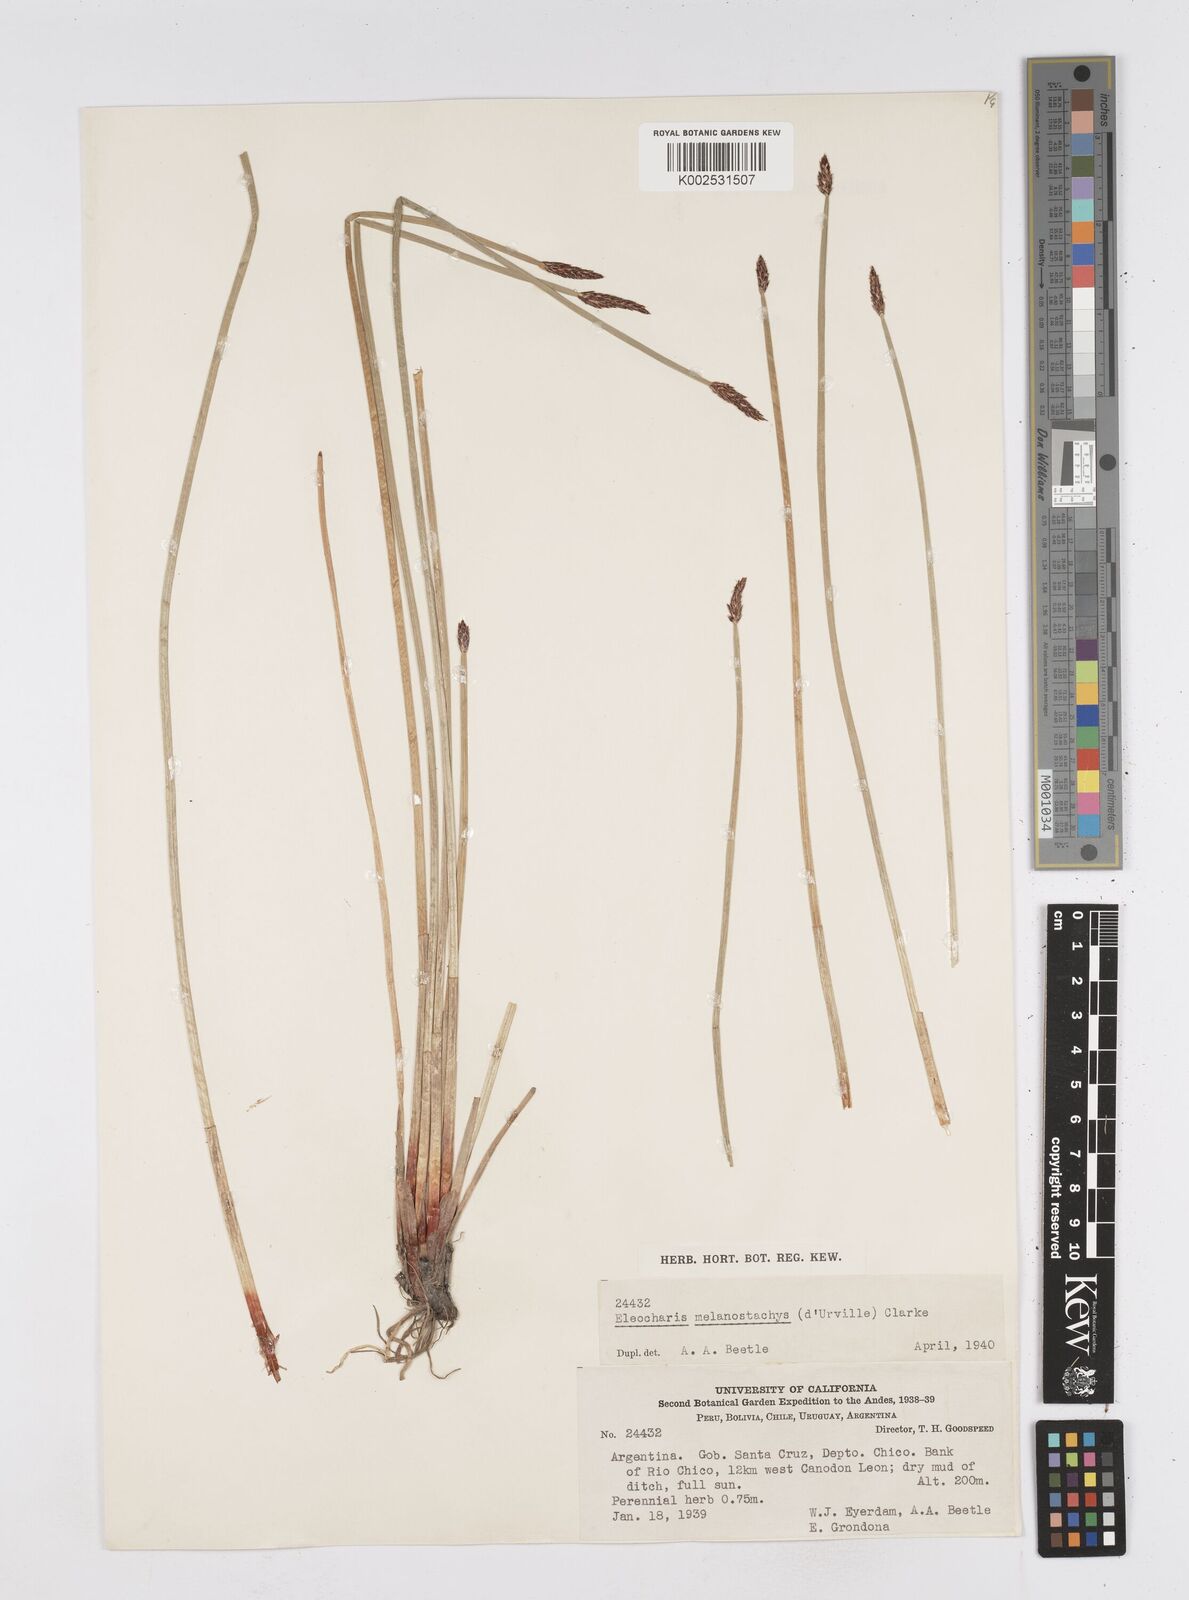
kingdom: Plantae
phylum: Tracheophyta
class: Liliopsida
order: Poales
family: Cyperaceae
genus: Eleocharis
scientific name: Eleocharis melanostachys
